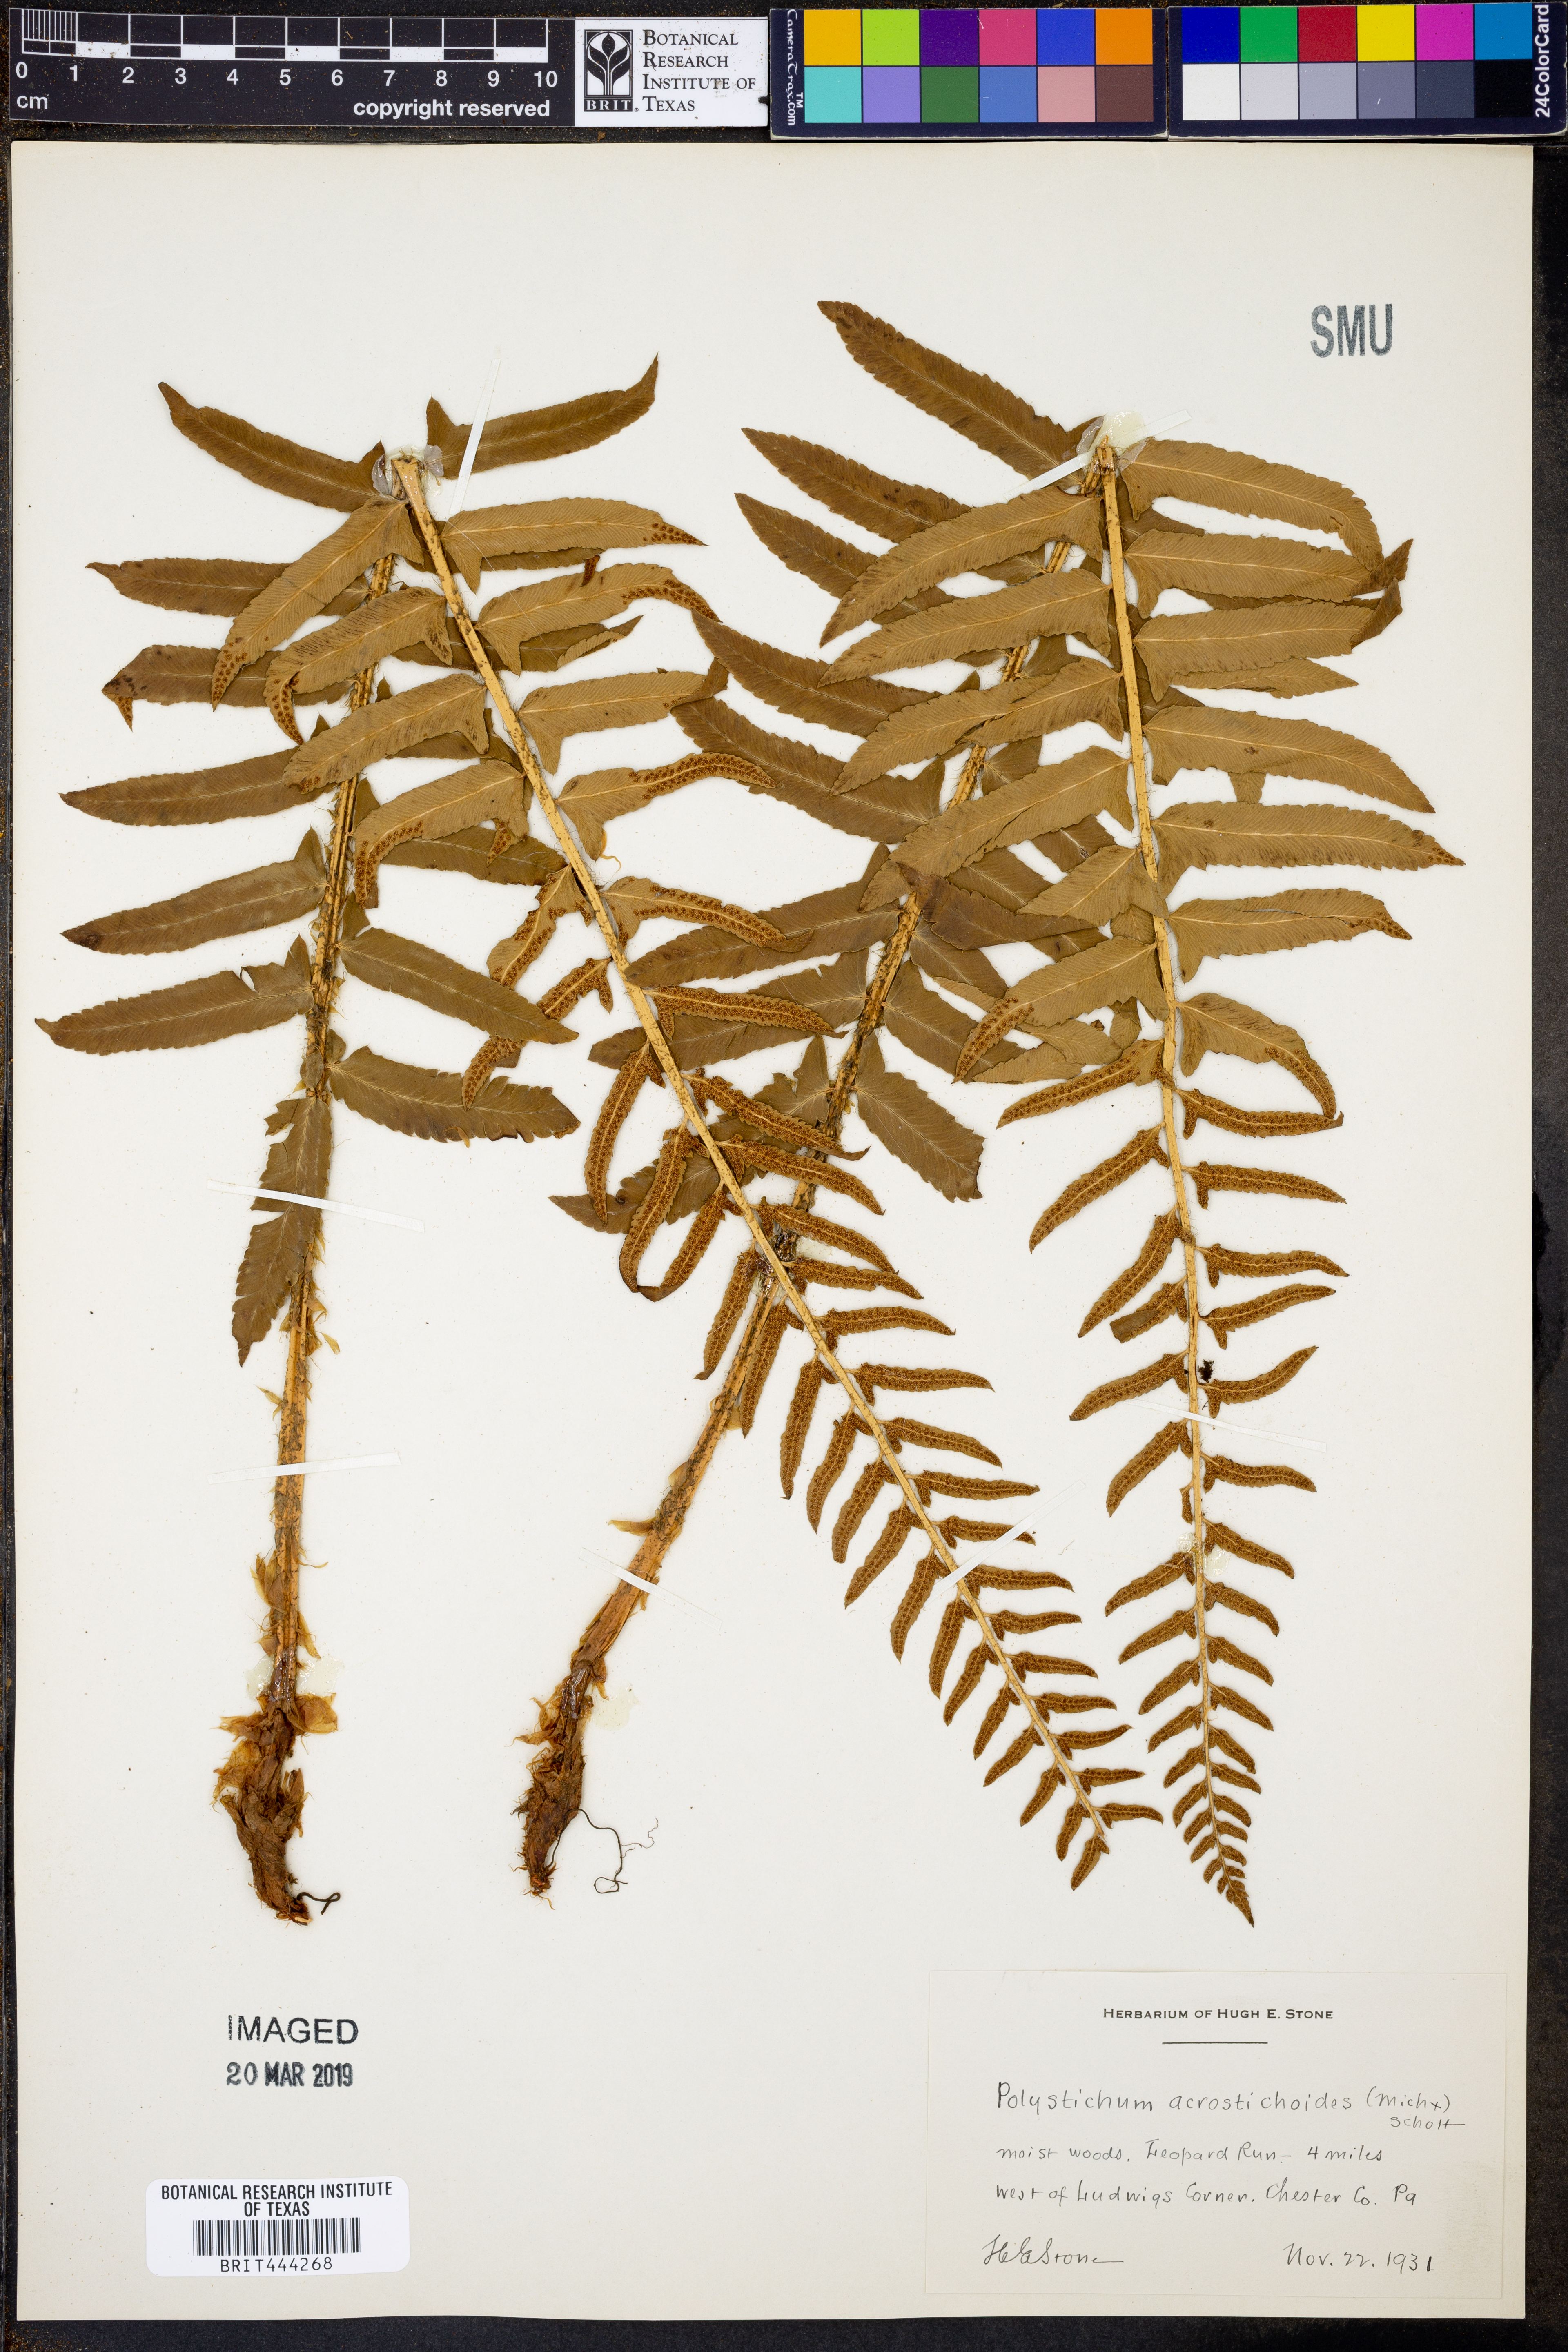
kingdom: Plantae
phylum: Tracheophyta
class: Polypodiopsida
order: Polypodiales
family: Dryopteridaceae
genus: Polystichum
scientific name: Polystichum acrostichoides
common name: Christmas fern
